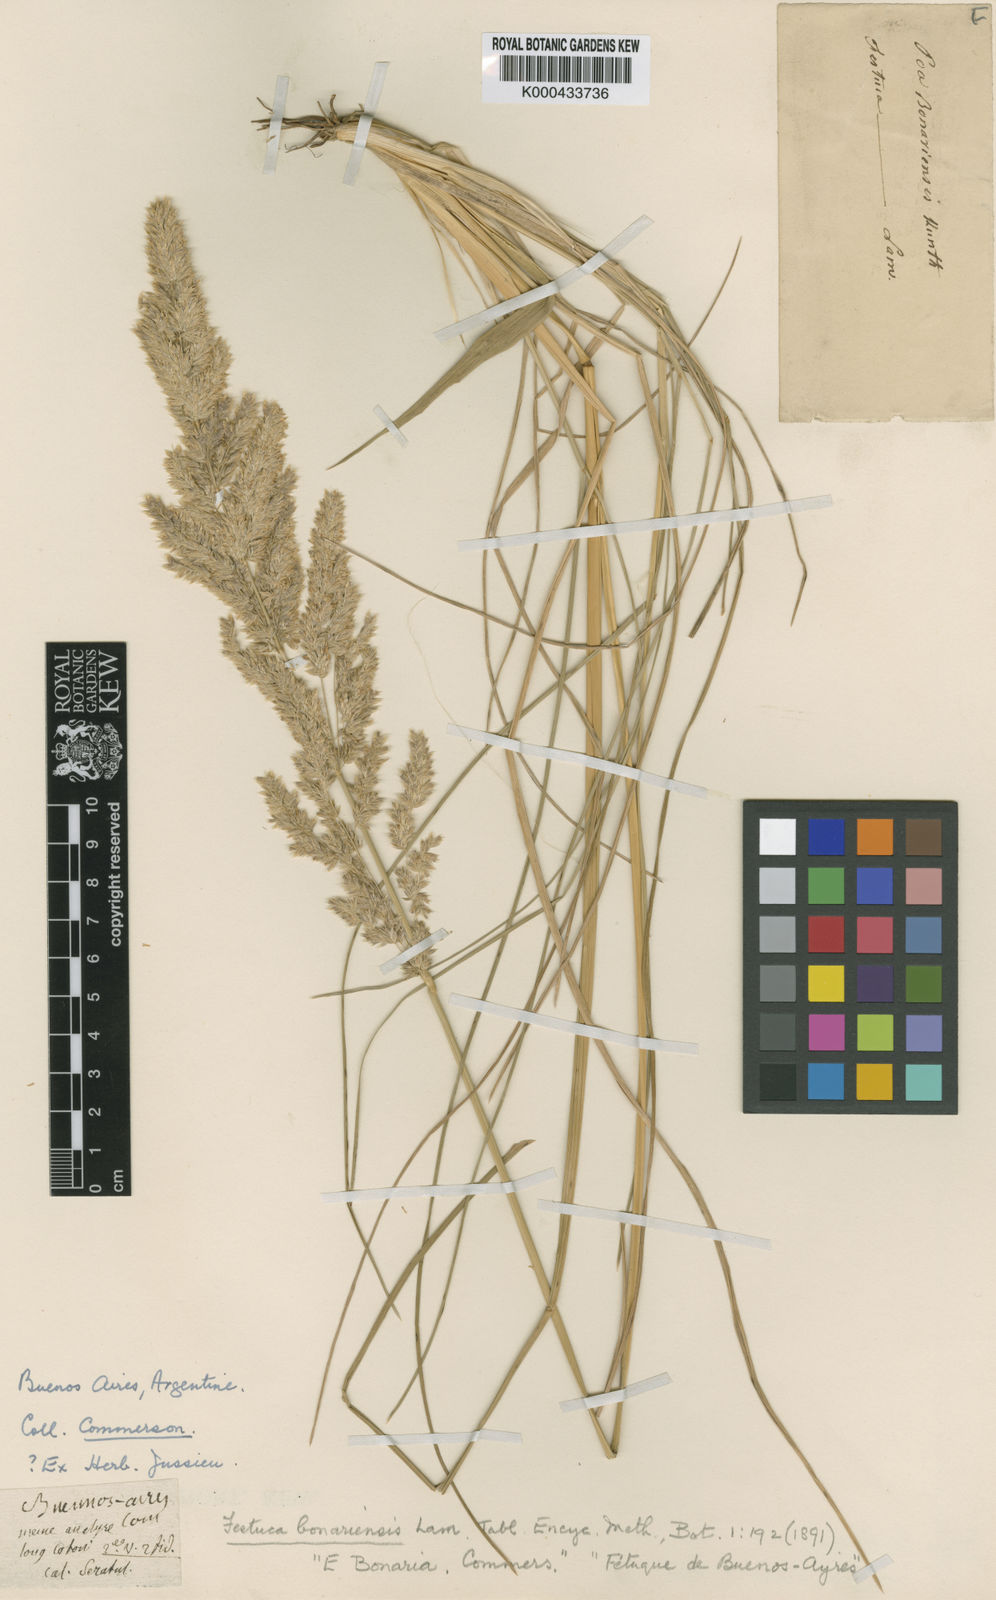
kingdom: Plantae
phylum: Tracheophyta
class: Liliopsida
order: Poales
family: Poaceae
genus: Poa
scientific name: Poa bonariensis
